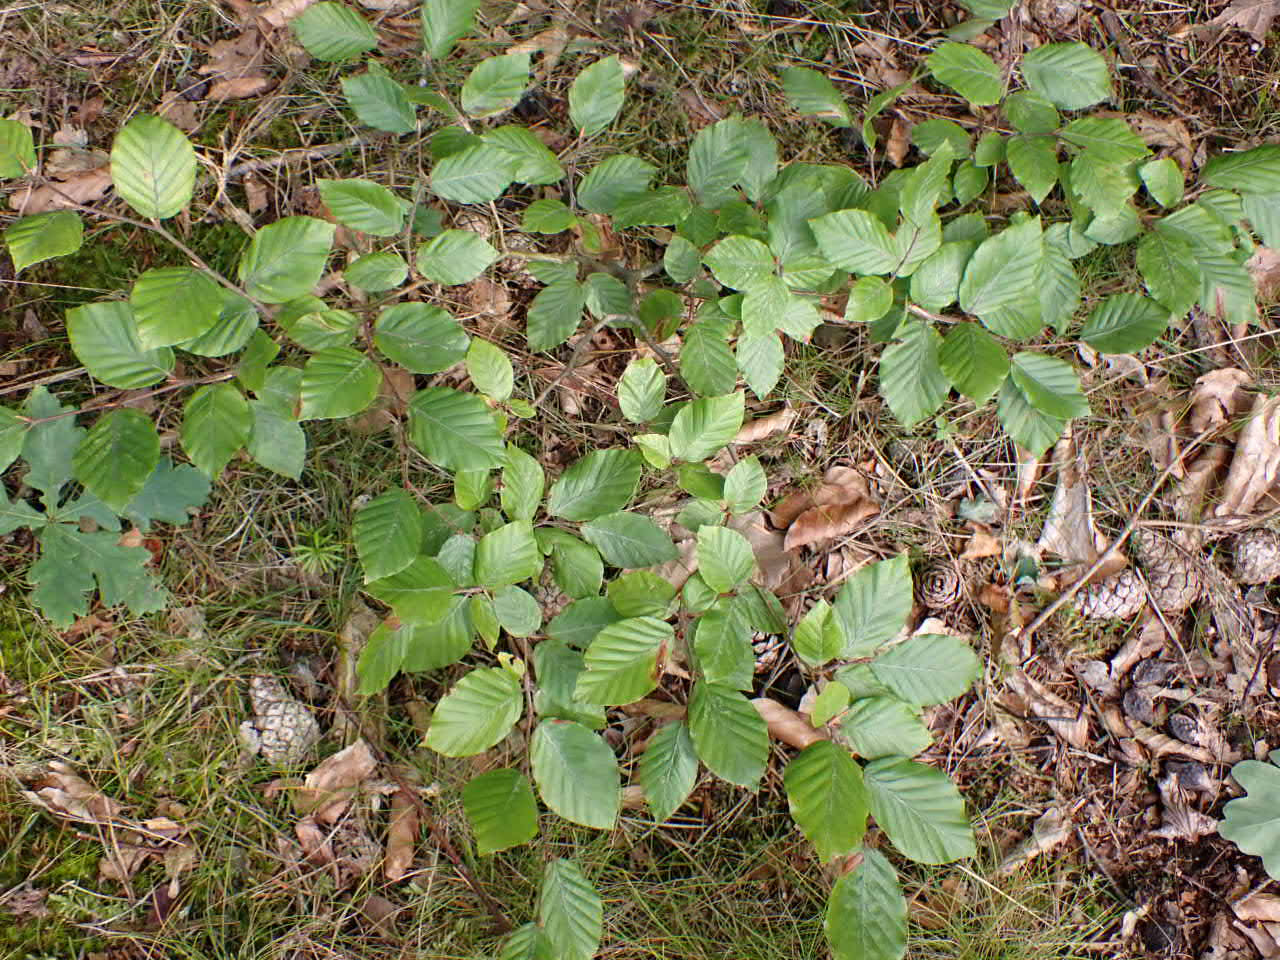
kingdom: Plantae
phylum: Tracheophyta
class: Magnoliopsida
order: Fagales
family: Fagaceae
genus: Fagus
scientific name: Fagus sylvatica
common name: Bøg
